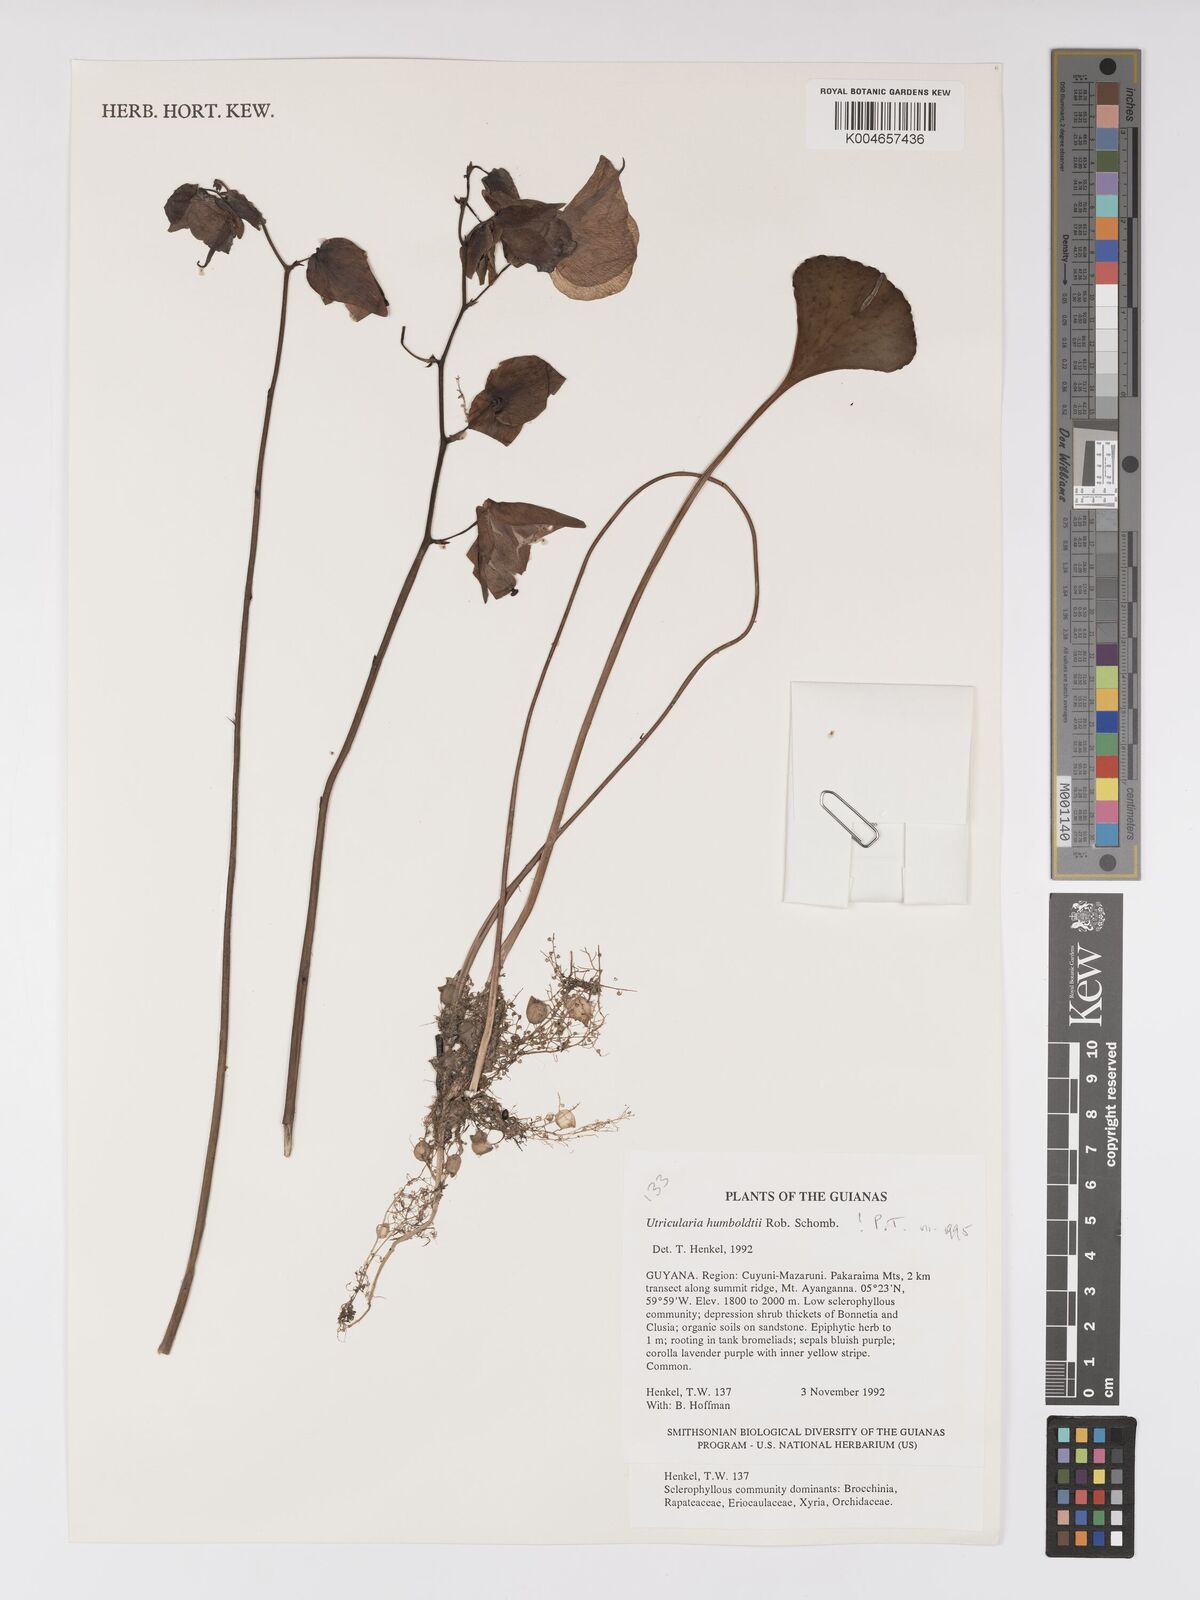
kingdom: Plantae
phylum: Tracheophyta
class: Magnoliopsida
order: Lamiales
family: Lentibulariaceae
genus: Utricularia
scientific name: Utricularia humboldtii
